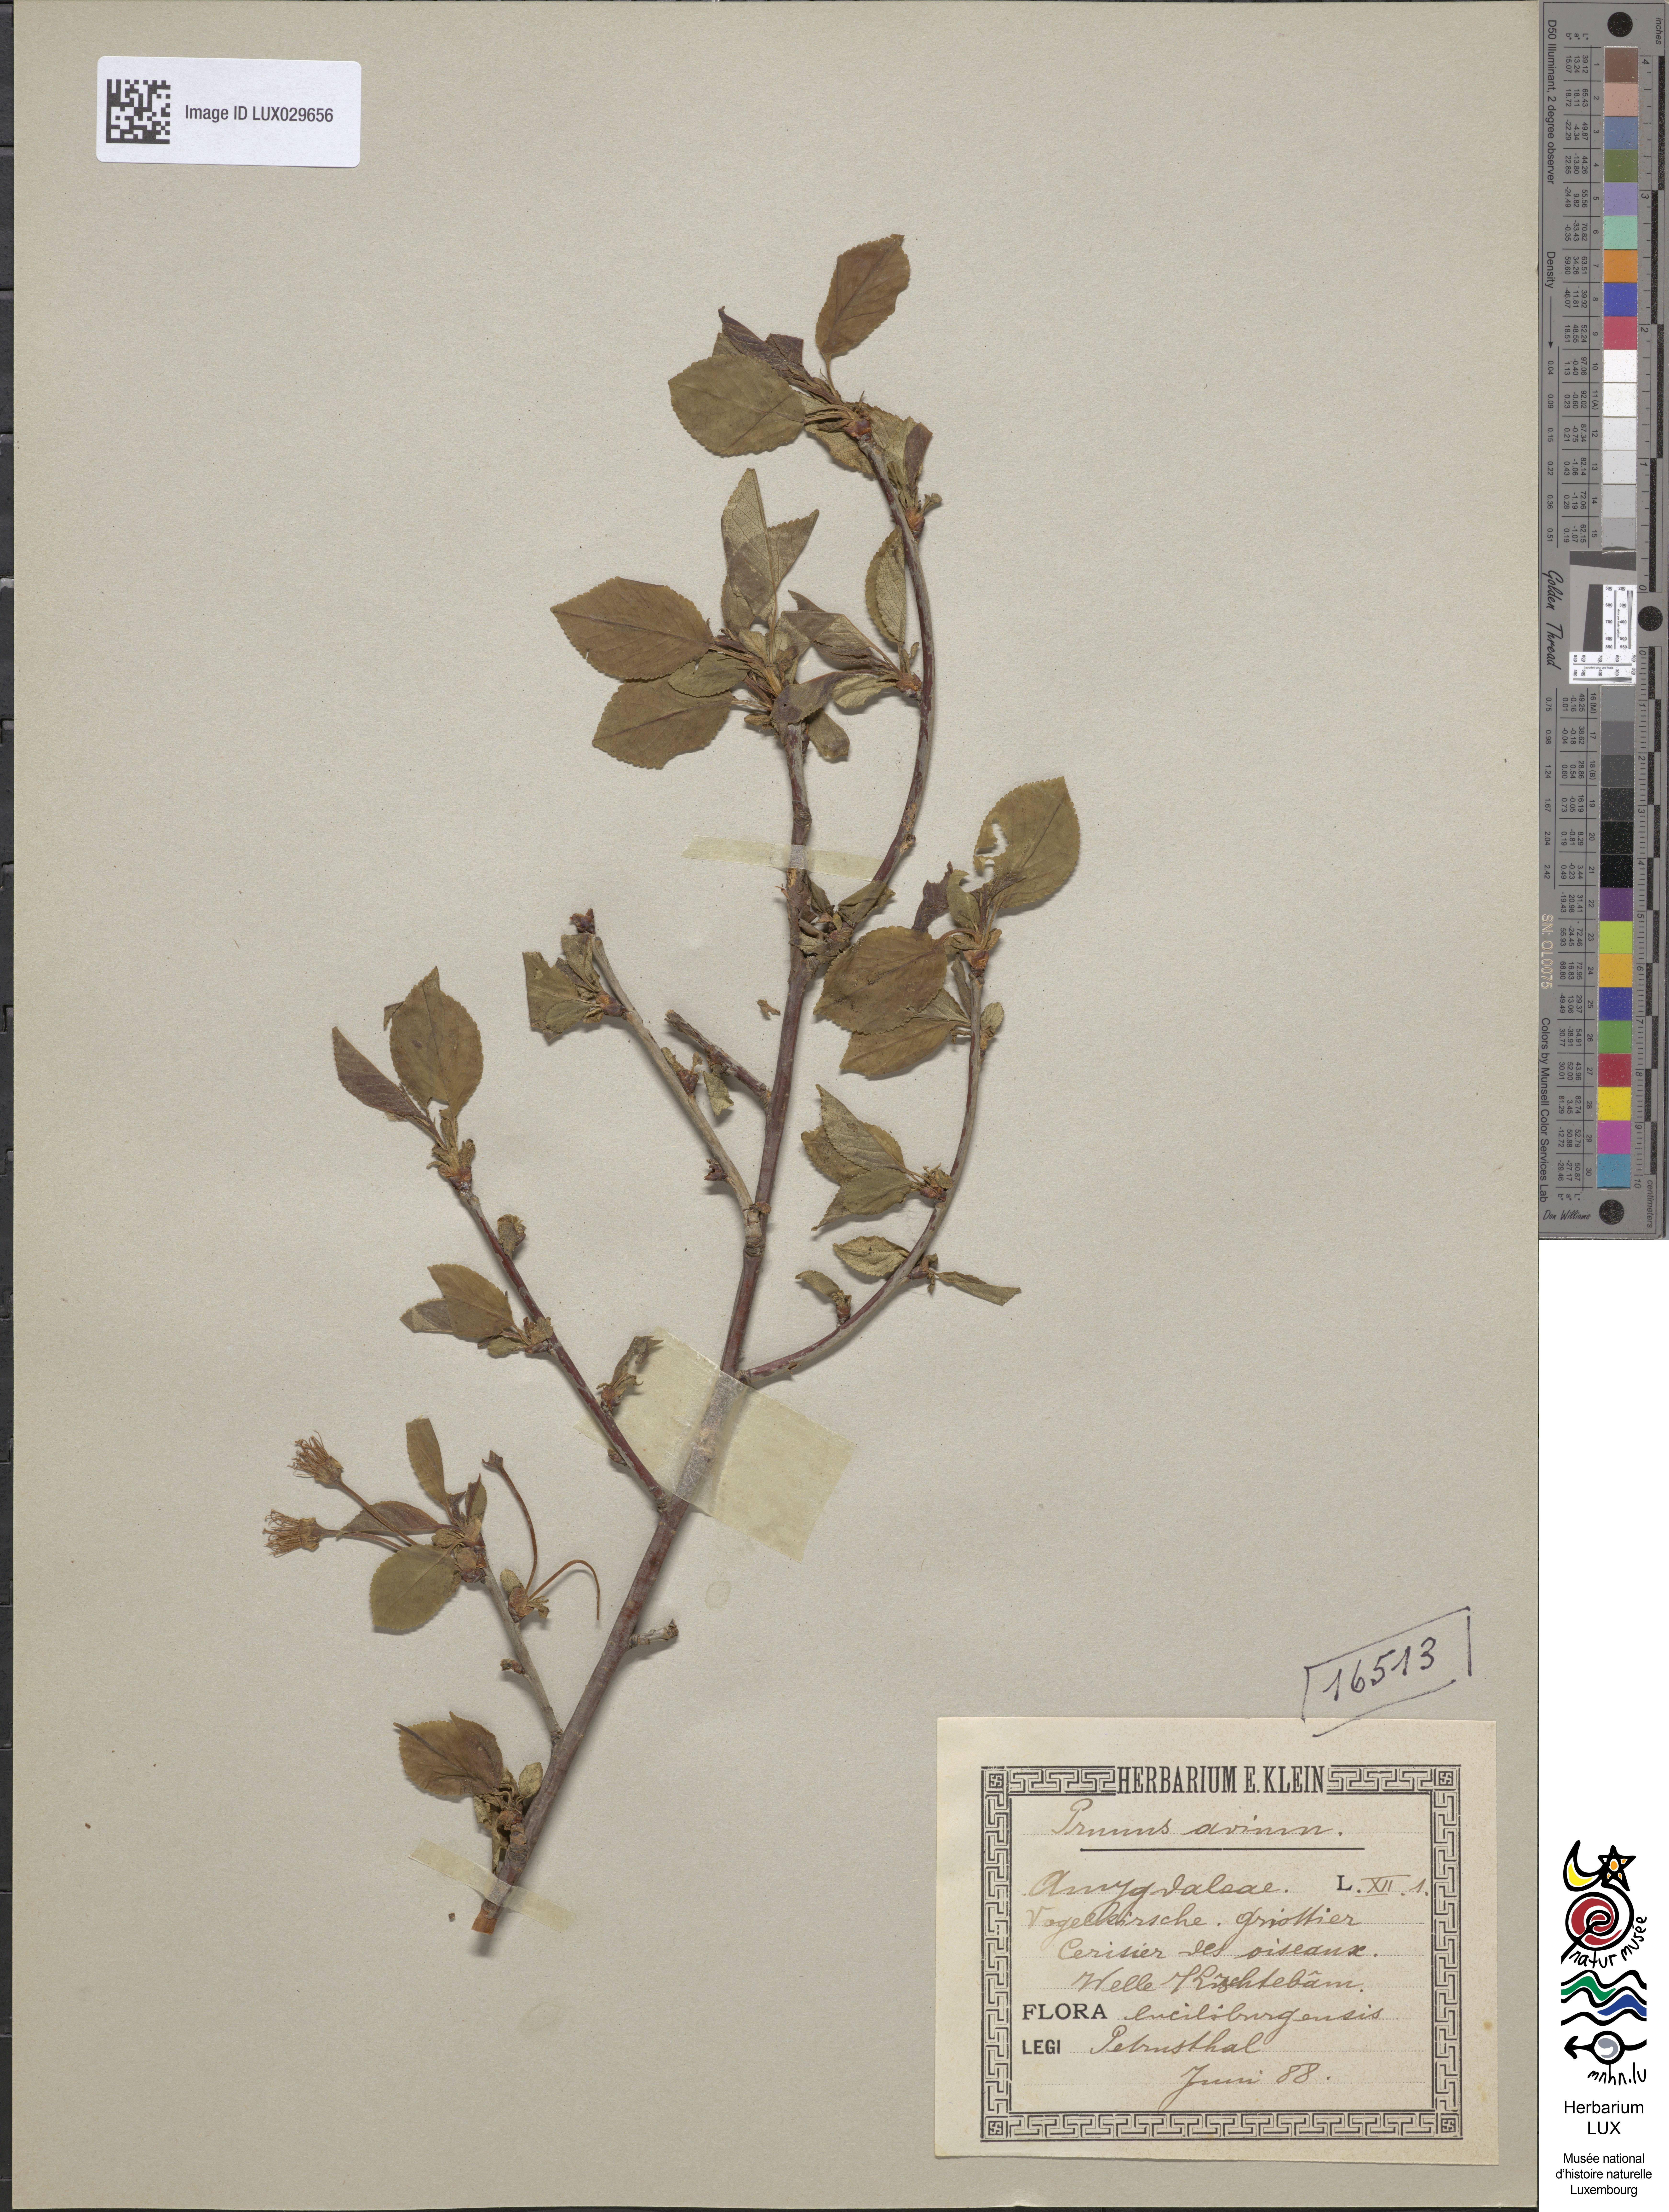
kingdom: Plantae
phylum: Tracheophyta
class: Magnoliopsida
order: Rosales
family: Rosaceae
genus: Prunus
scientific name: Prunus avium
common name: Sweet cherry
